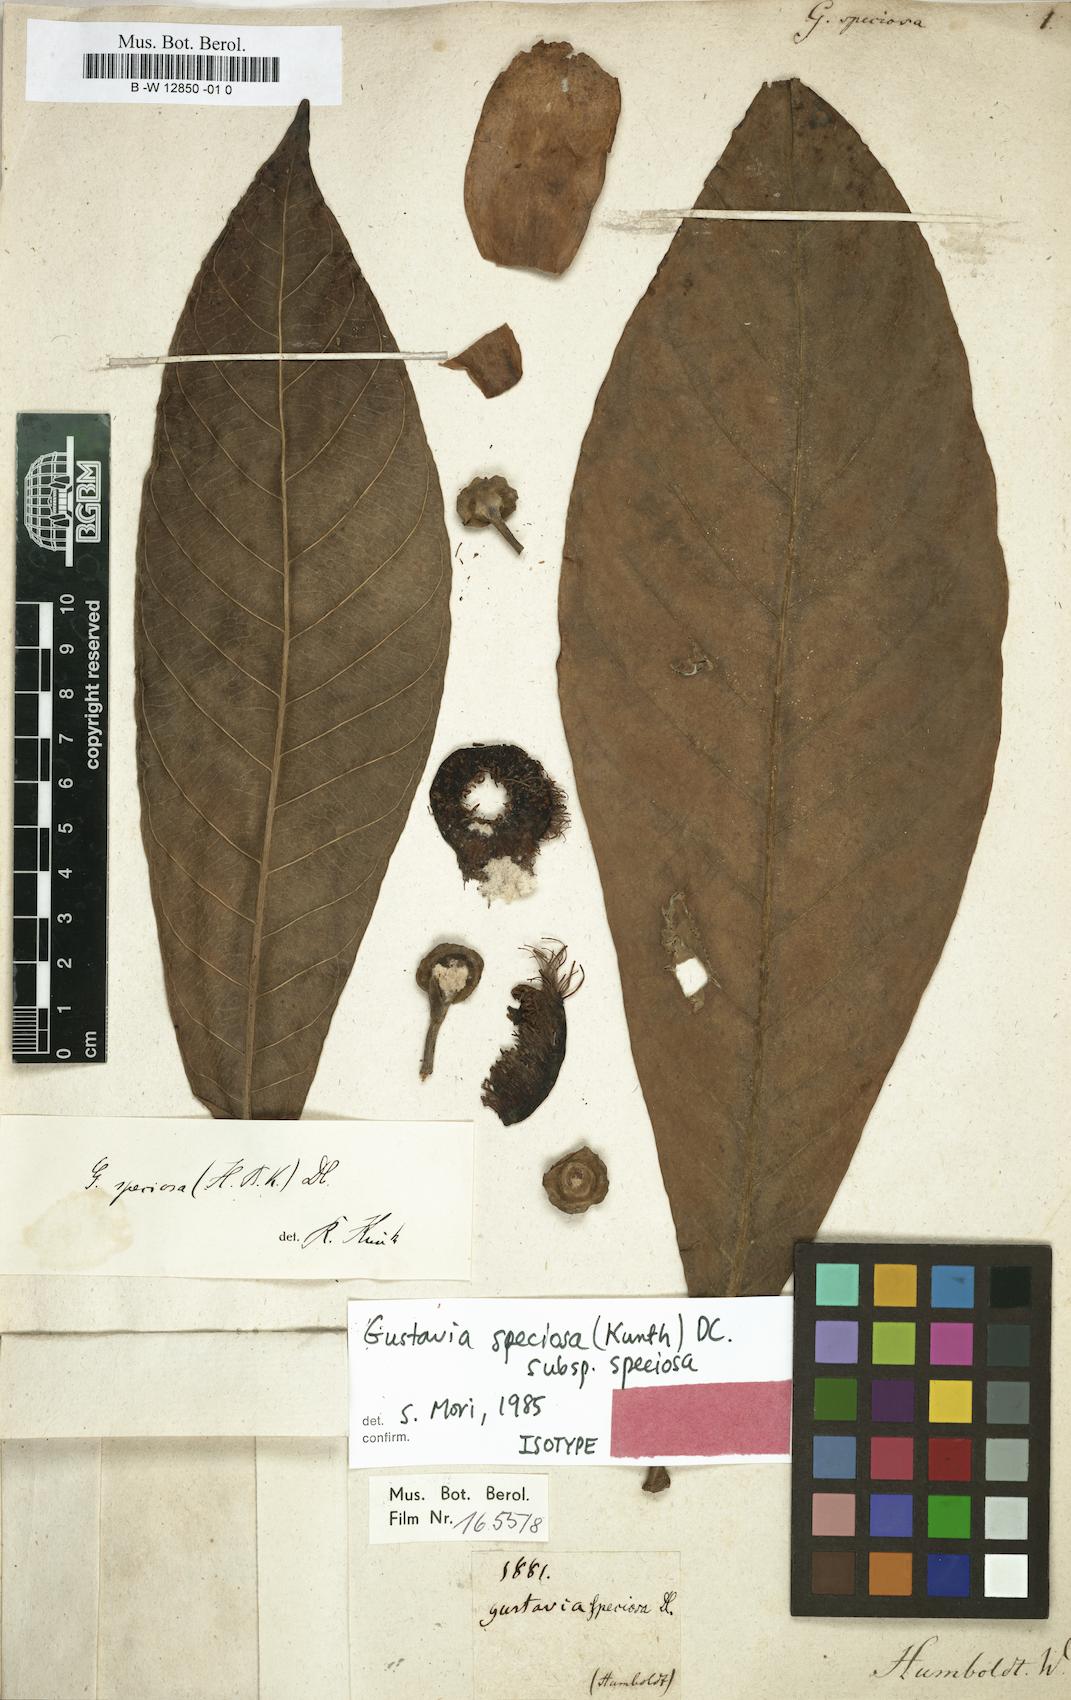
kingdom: Plantae
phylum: Tracheophyta
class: Magnoliopsida
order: Ericales
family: Lecythidaceae
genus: Gustavia
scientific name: Gustavia speciosa
